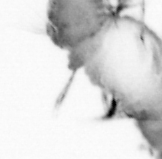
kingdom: Animalia
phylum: Annelida
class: Polychaeta
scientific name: Polychaeta
